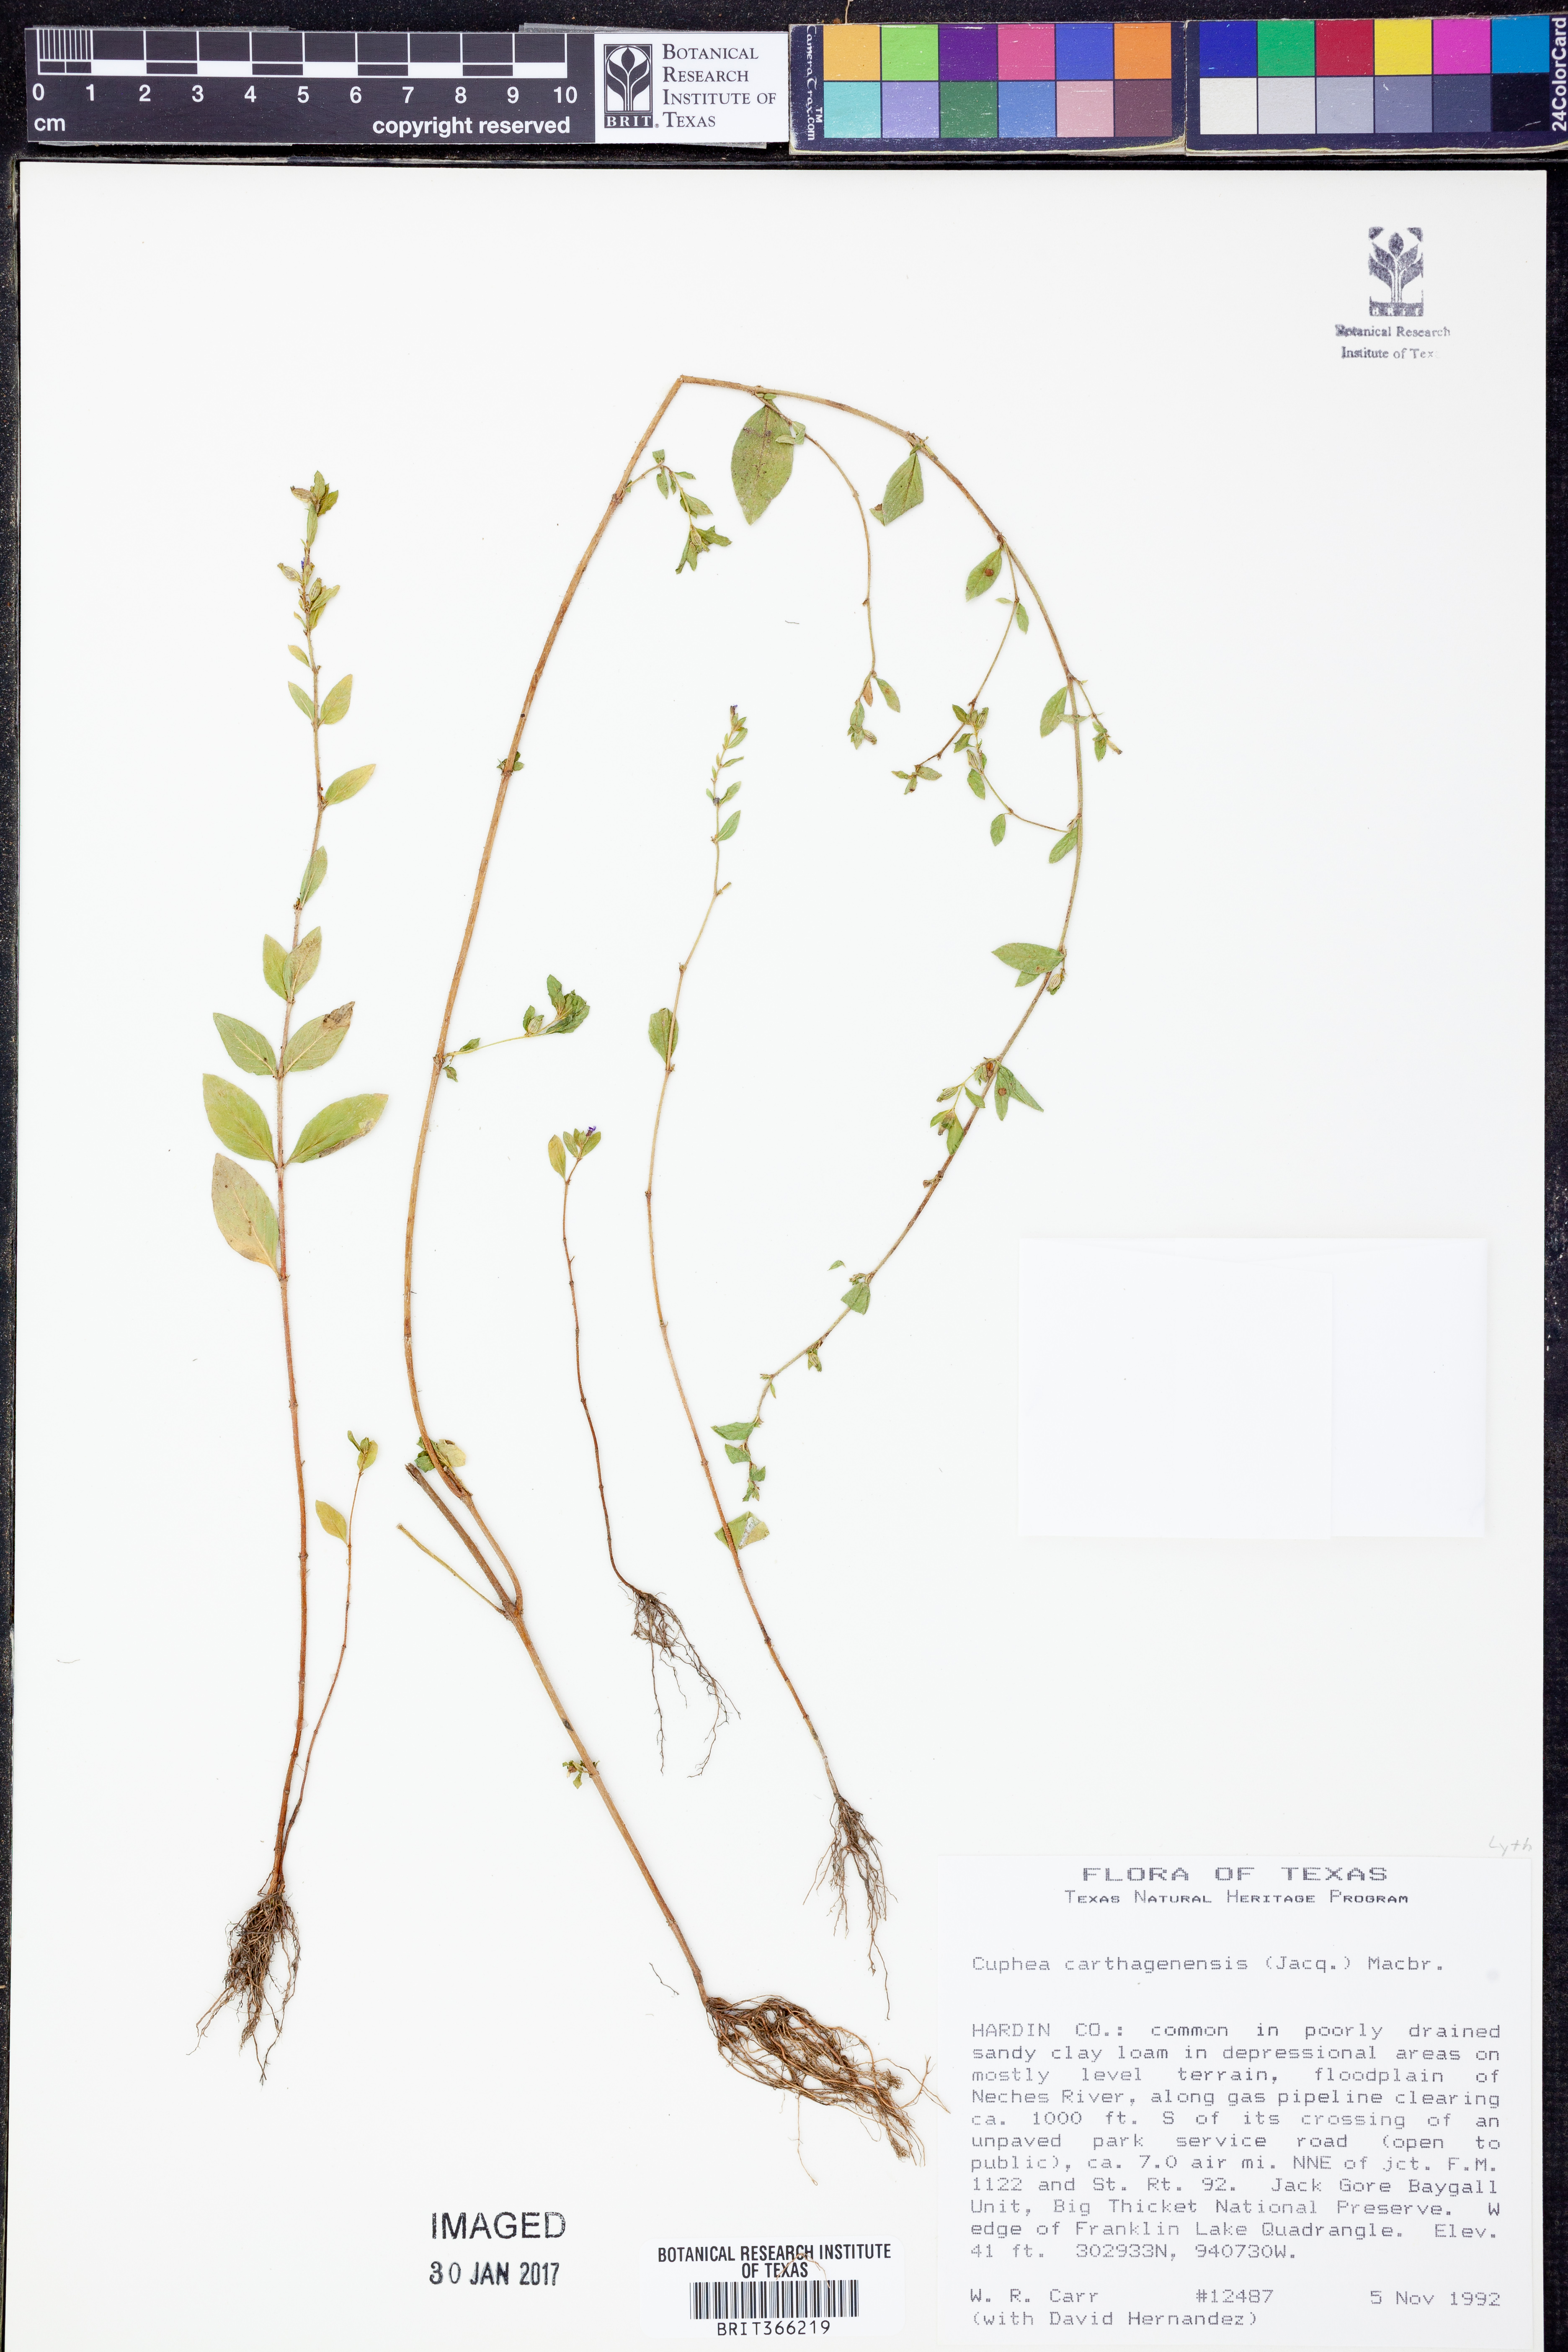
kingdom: Plantae
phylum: Tracheophyta
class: Magnoliopsida
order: Myrtales
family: Lythraceae
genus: Cuphea
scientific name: Cuphea carthagenensis
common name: Colombian waxweed
